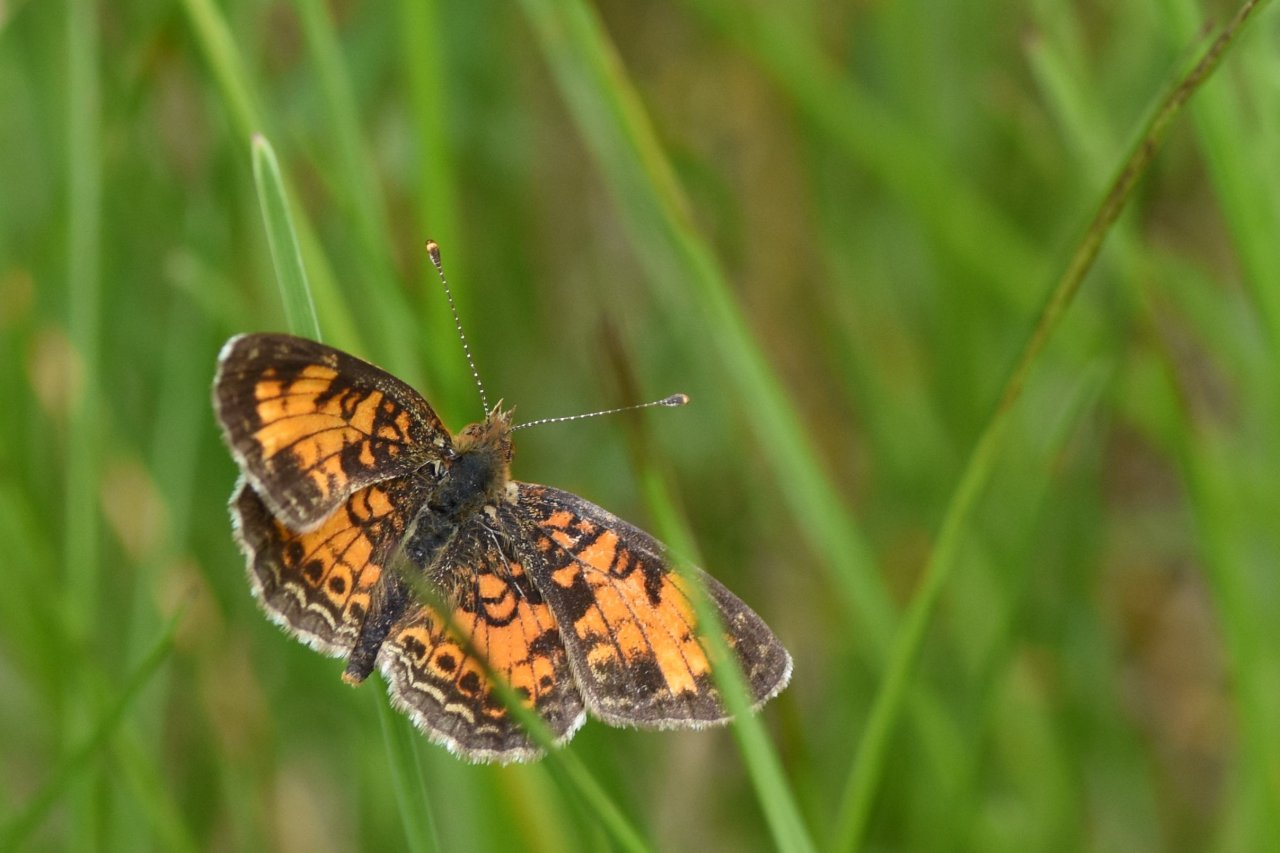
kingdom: Animalia
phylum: Arthropoda
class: Insecta
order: Lepidoptera
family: Nymphalidae
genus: Phyciodes
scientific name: Phyciodes tharos
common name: Northern Crescent
